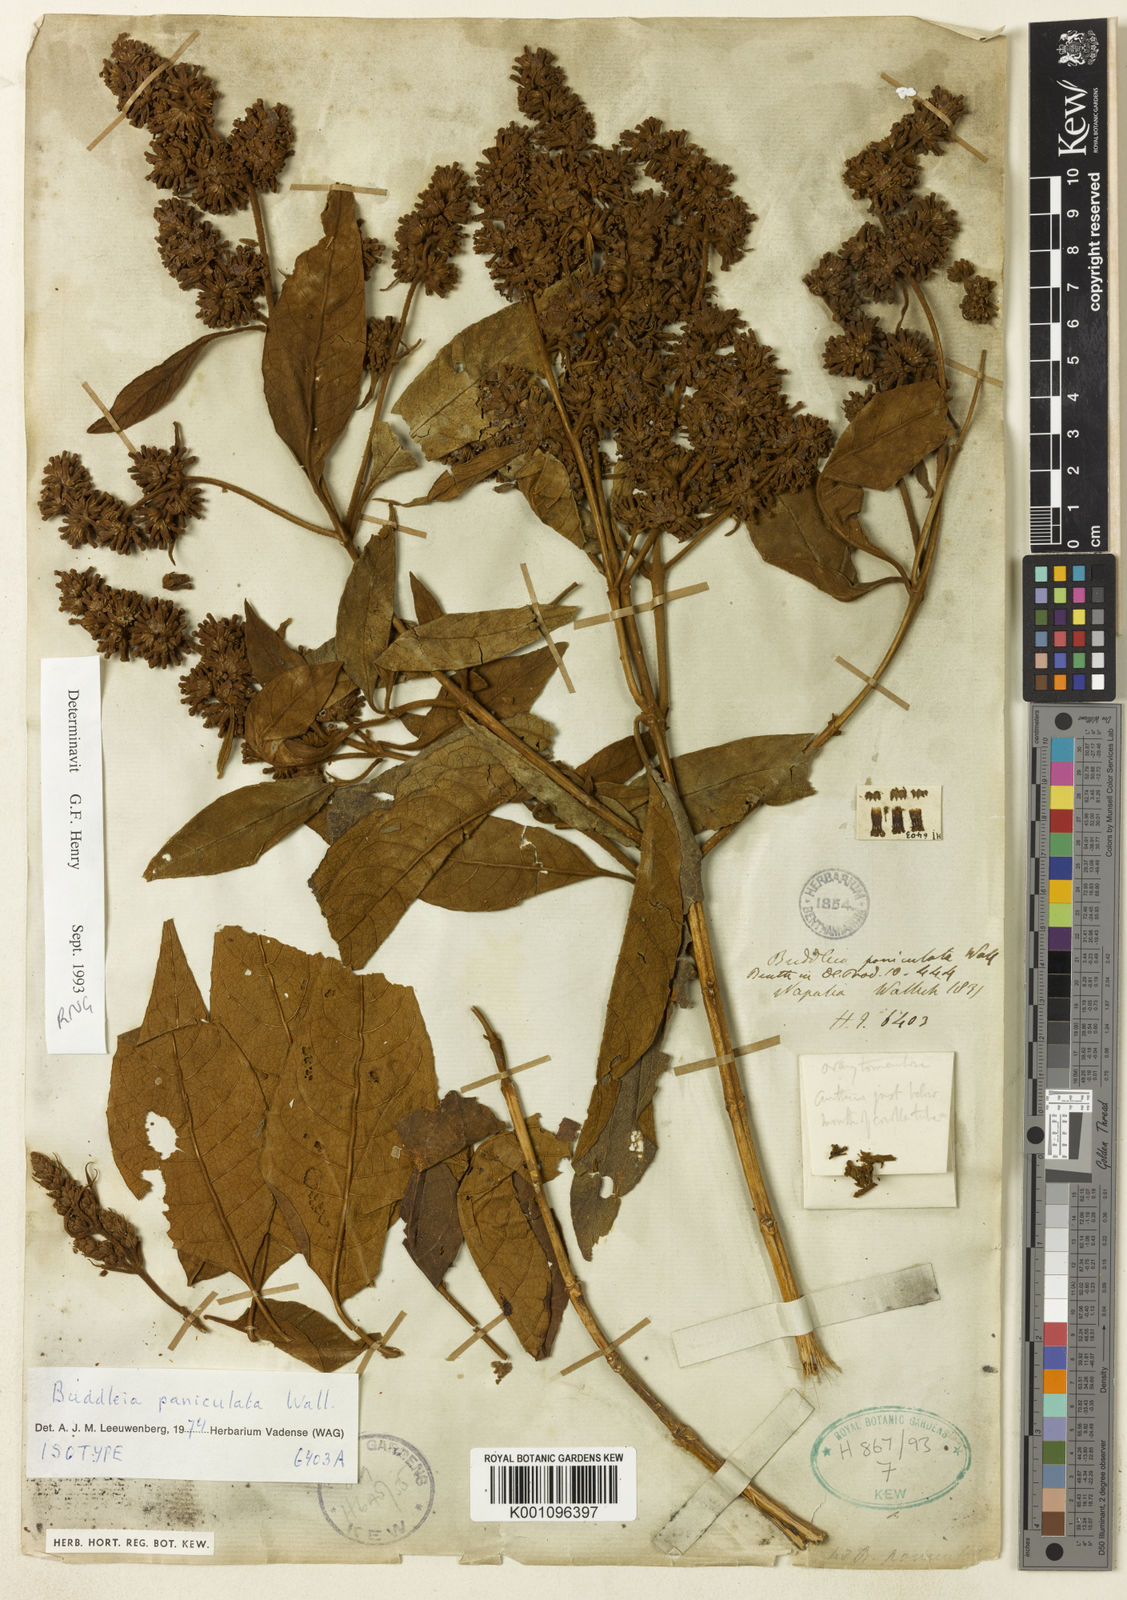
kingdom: Plantae
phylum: Tracheophyta
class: Magnoliopsida
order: Lamiales
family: Scrophulariaceae
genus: Buddleja
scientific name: Buddleja paniculata
